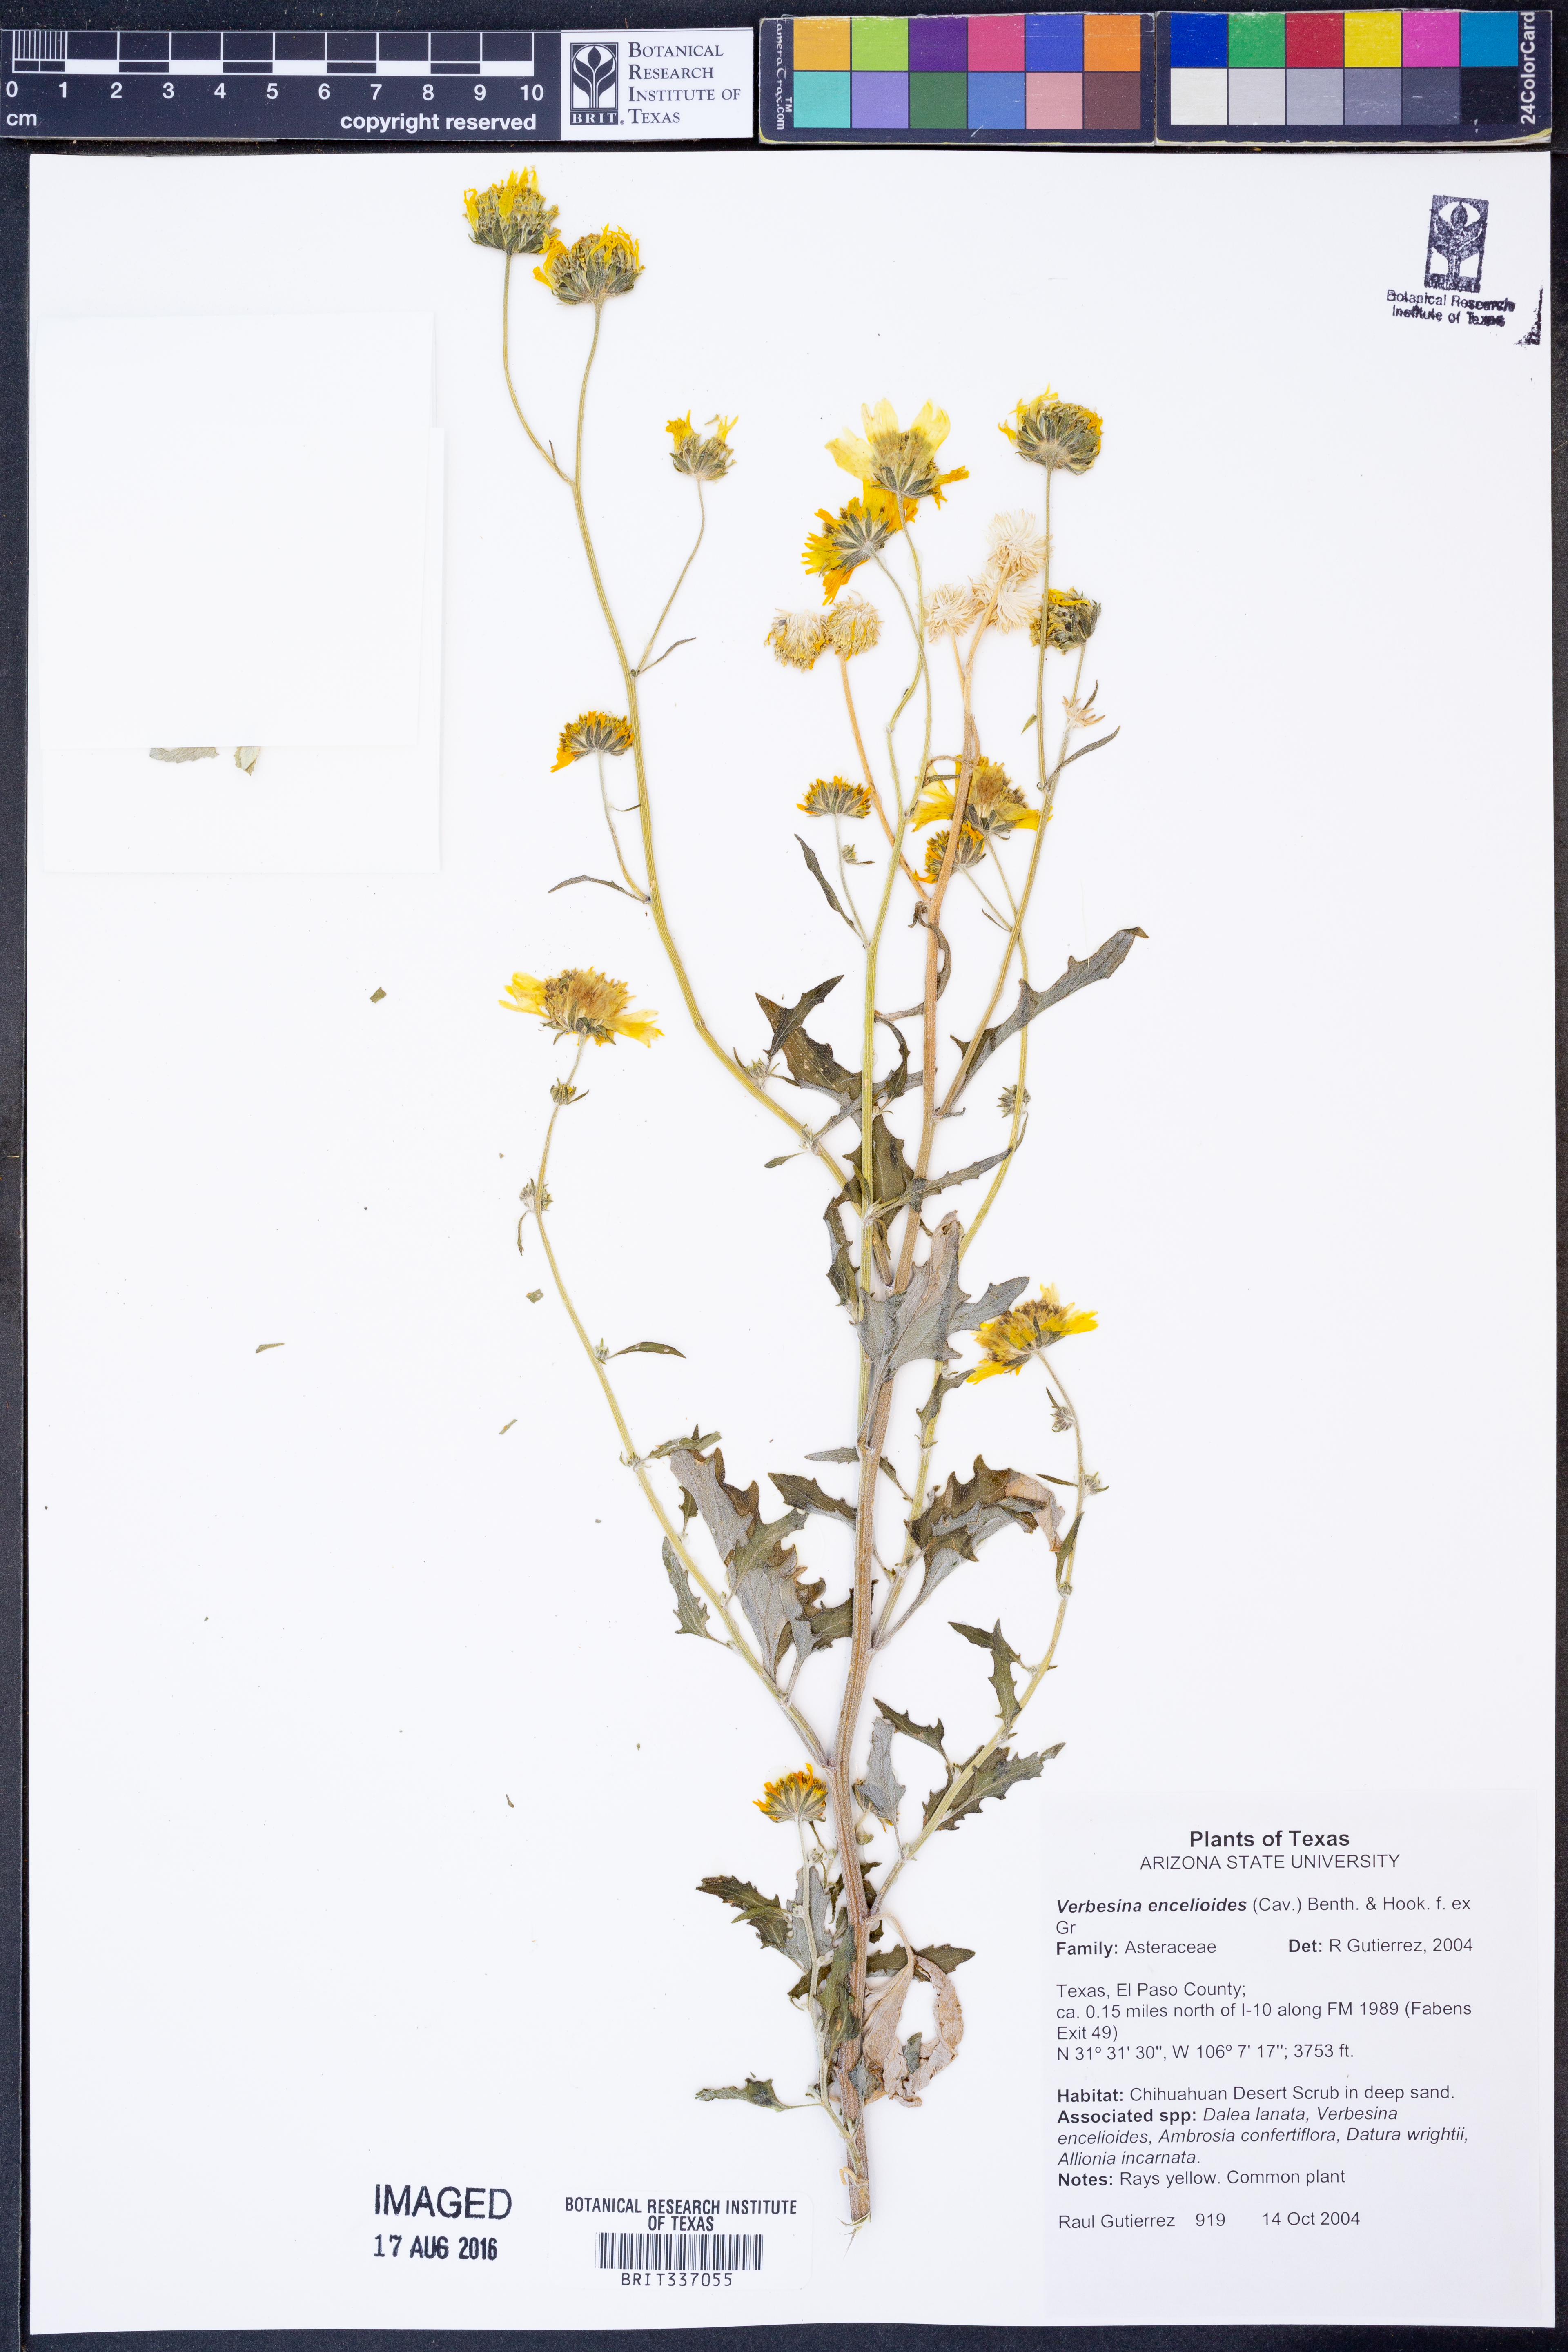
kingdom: Plantae
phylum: Tracheophyta
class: Magnoliopsida
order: Asterales
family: Asteraceae
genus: Verbesina
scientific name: Verbesina encelioides
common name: Golden crownbeard
